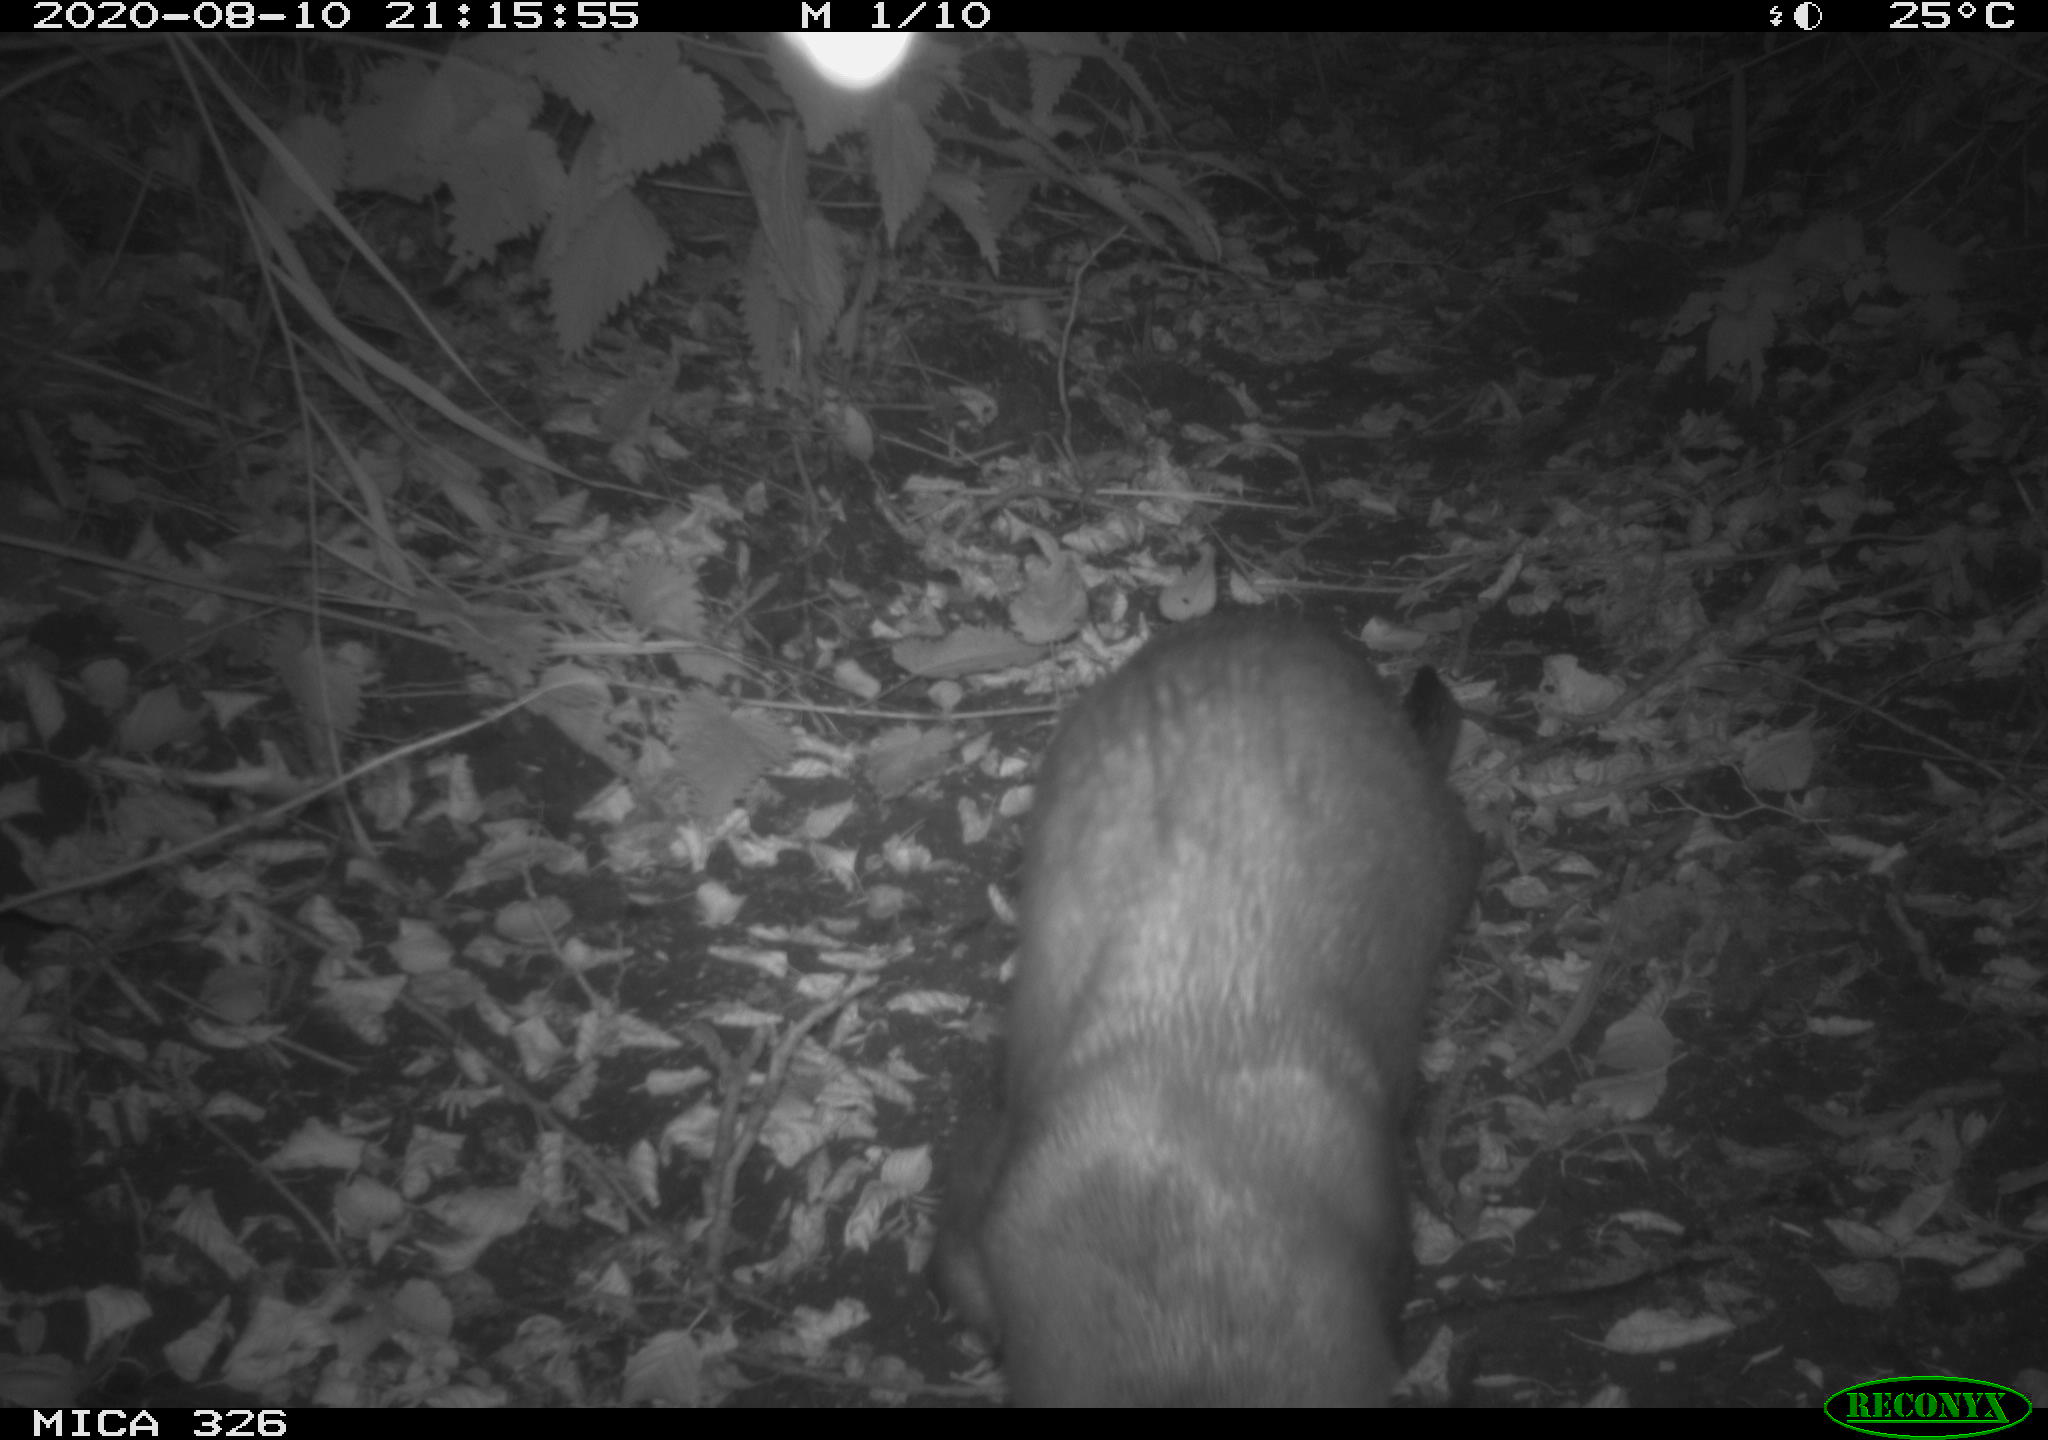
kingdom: Animalia
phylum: Chordata
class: Mammalia
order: Carnivora
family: Mustelidae
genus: Lutra
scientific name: Lutra lutra
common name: European otter
